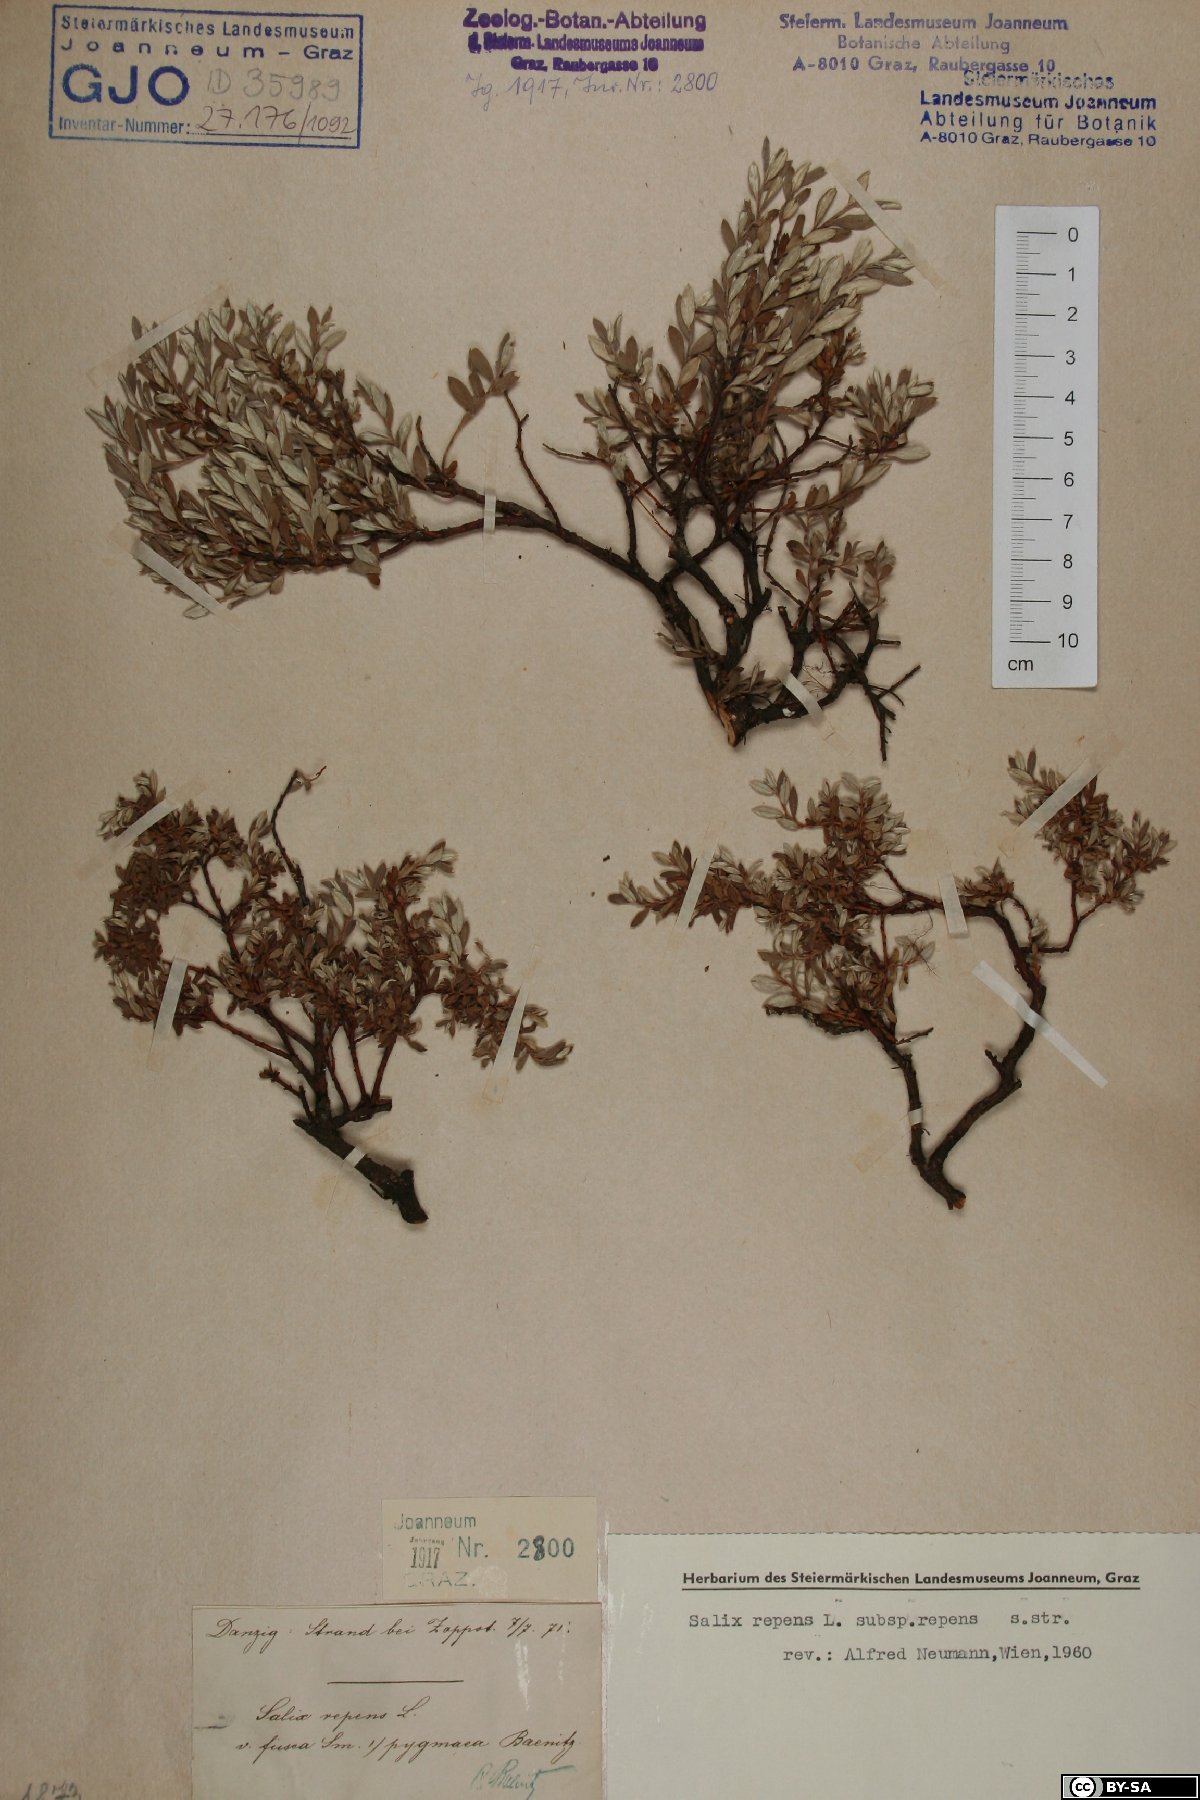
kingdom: Plantae
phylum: Tracheophyta
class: Magnoliopsida
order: Malpighiales
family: Salicaceae
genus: Salix
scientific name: Salix repens
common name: Creeping willow
